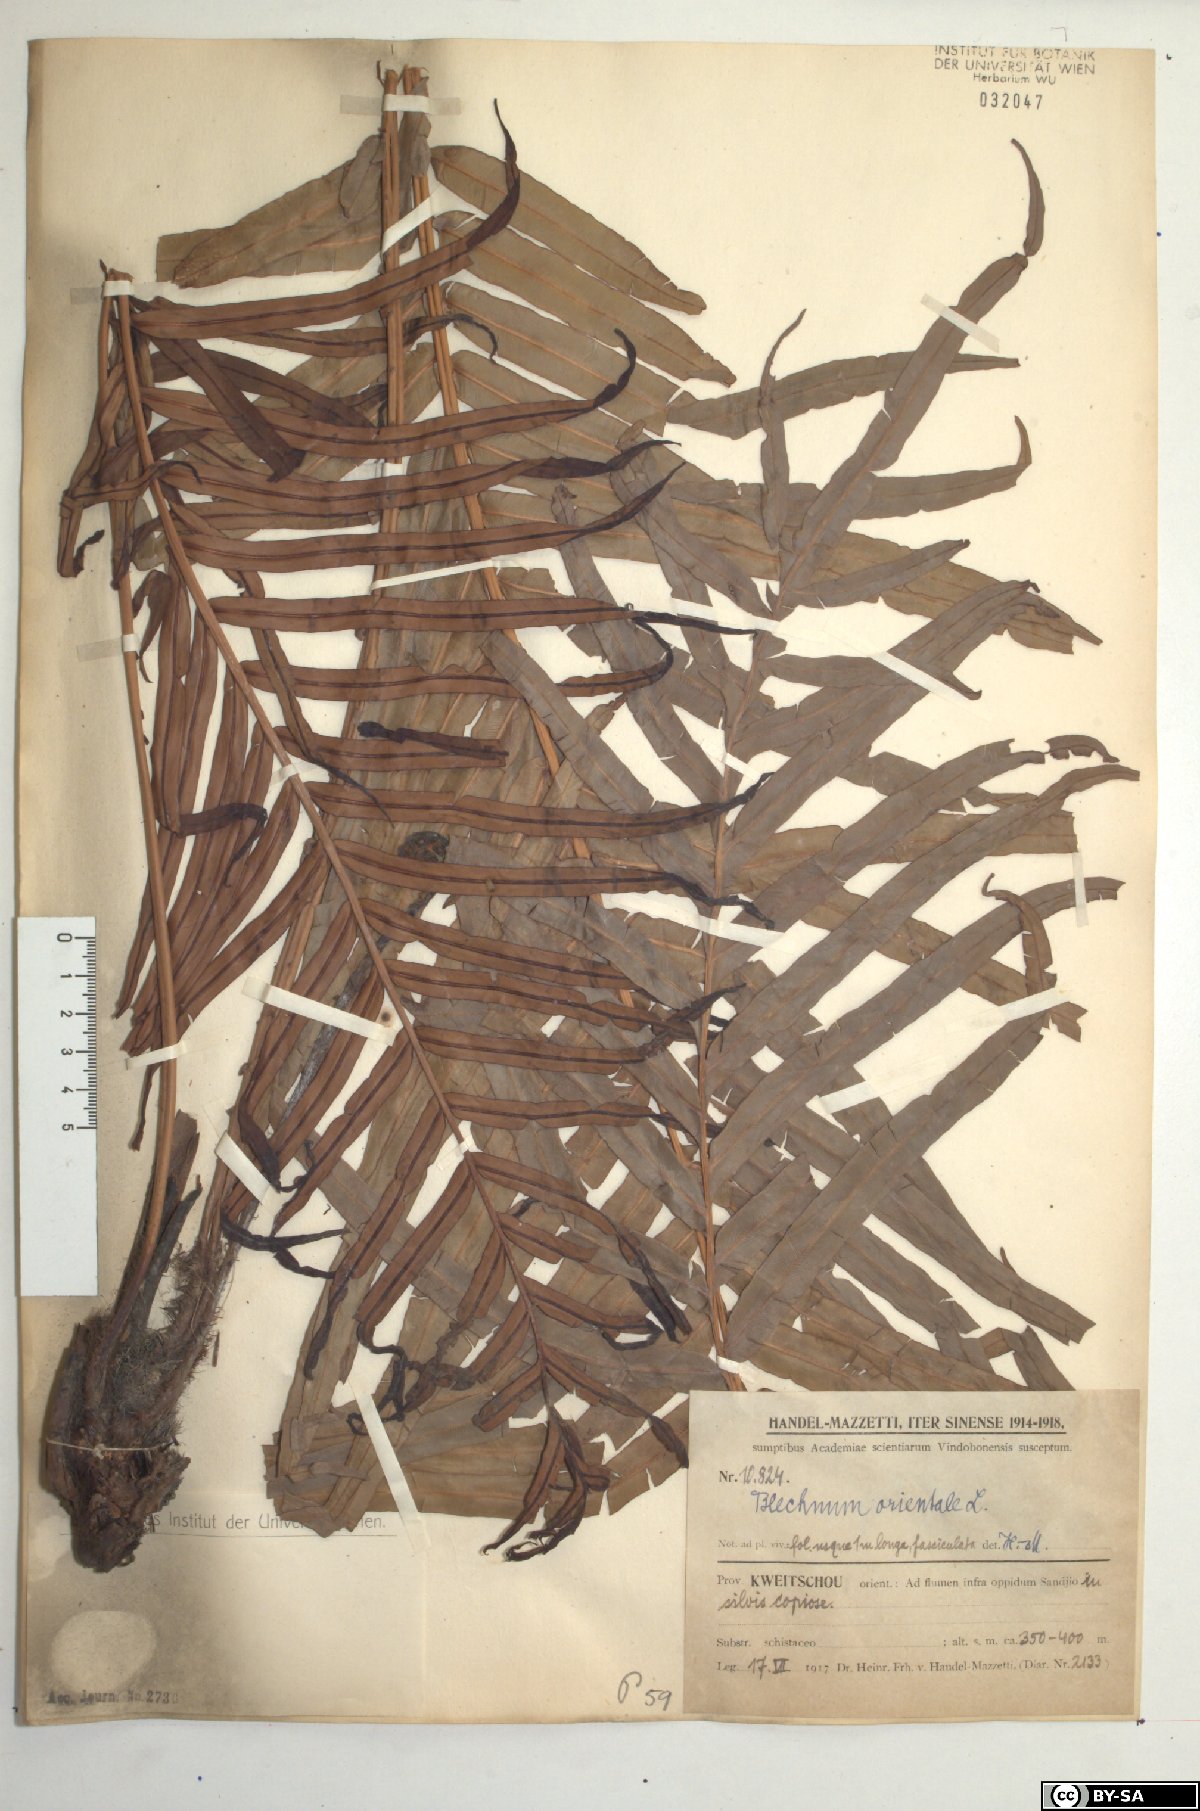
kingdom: Plantae
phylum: Tracheophyta
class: Polypodiopsida
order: Polypodiales
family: Blechnaceae
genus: Blechnopsis
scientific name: Blechnopsis orientalis
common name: Oriental blechnum
